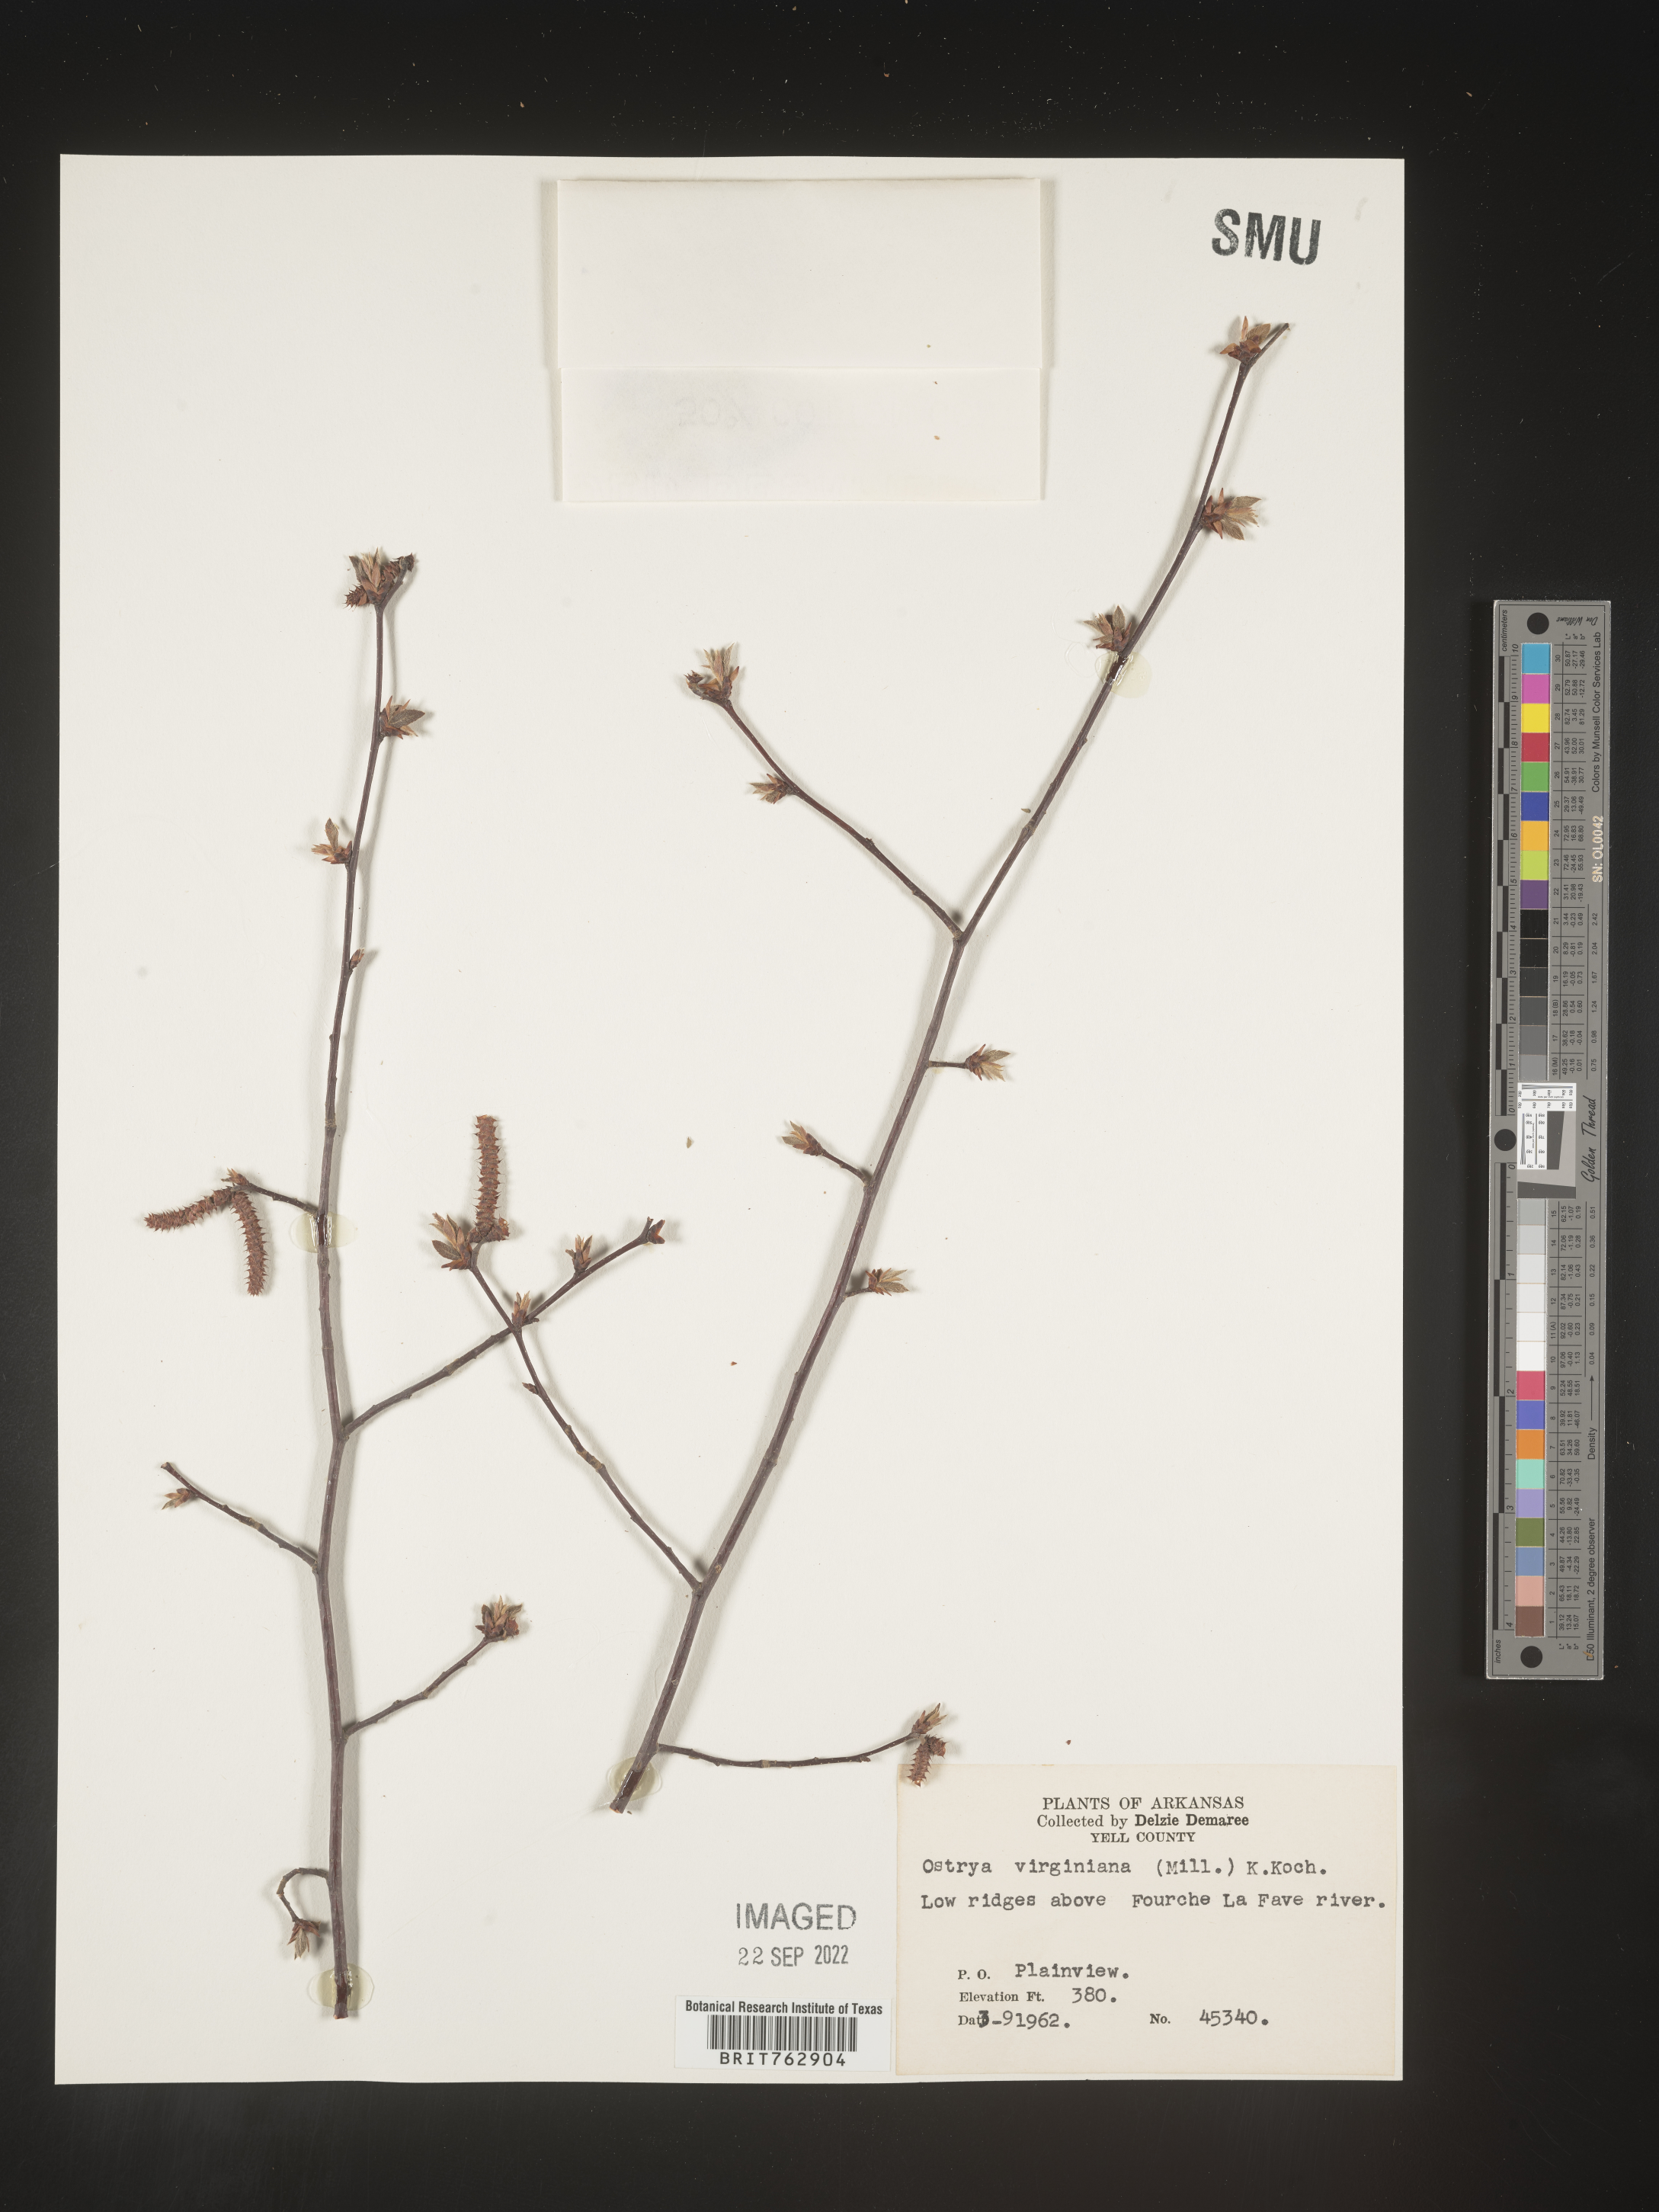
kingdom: Plantae
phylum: Tracheophyta
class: Magnoliopsida
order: Fagales
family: Betulaceae
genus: Ostrya
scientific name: Ostrya virginiana
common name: Ironwood
